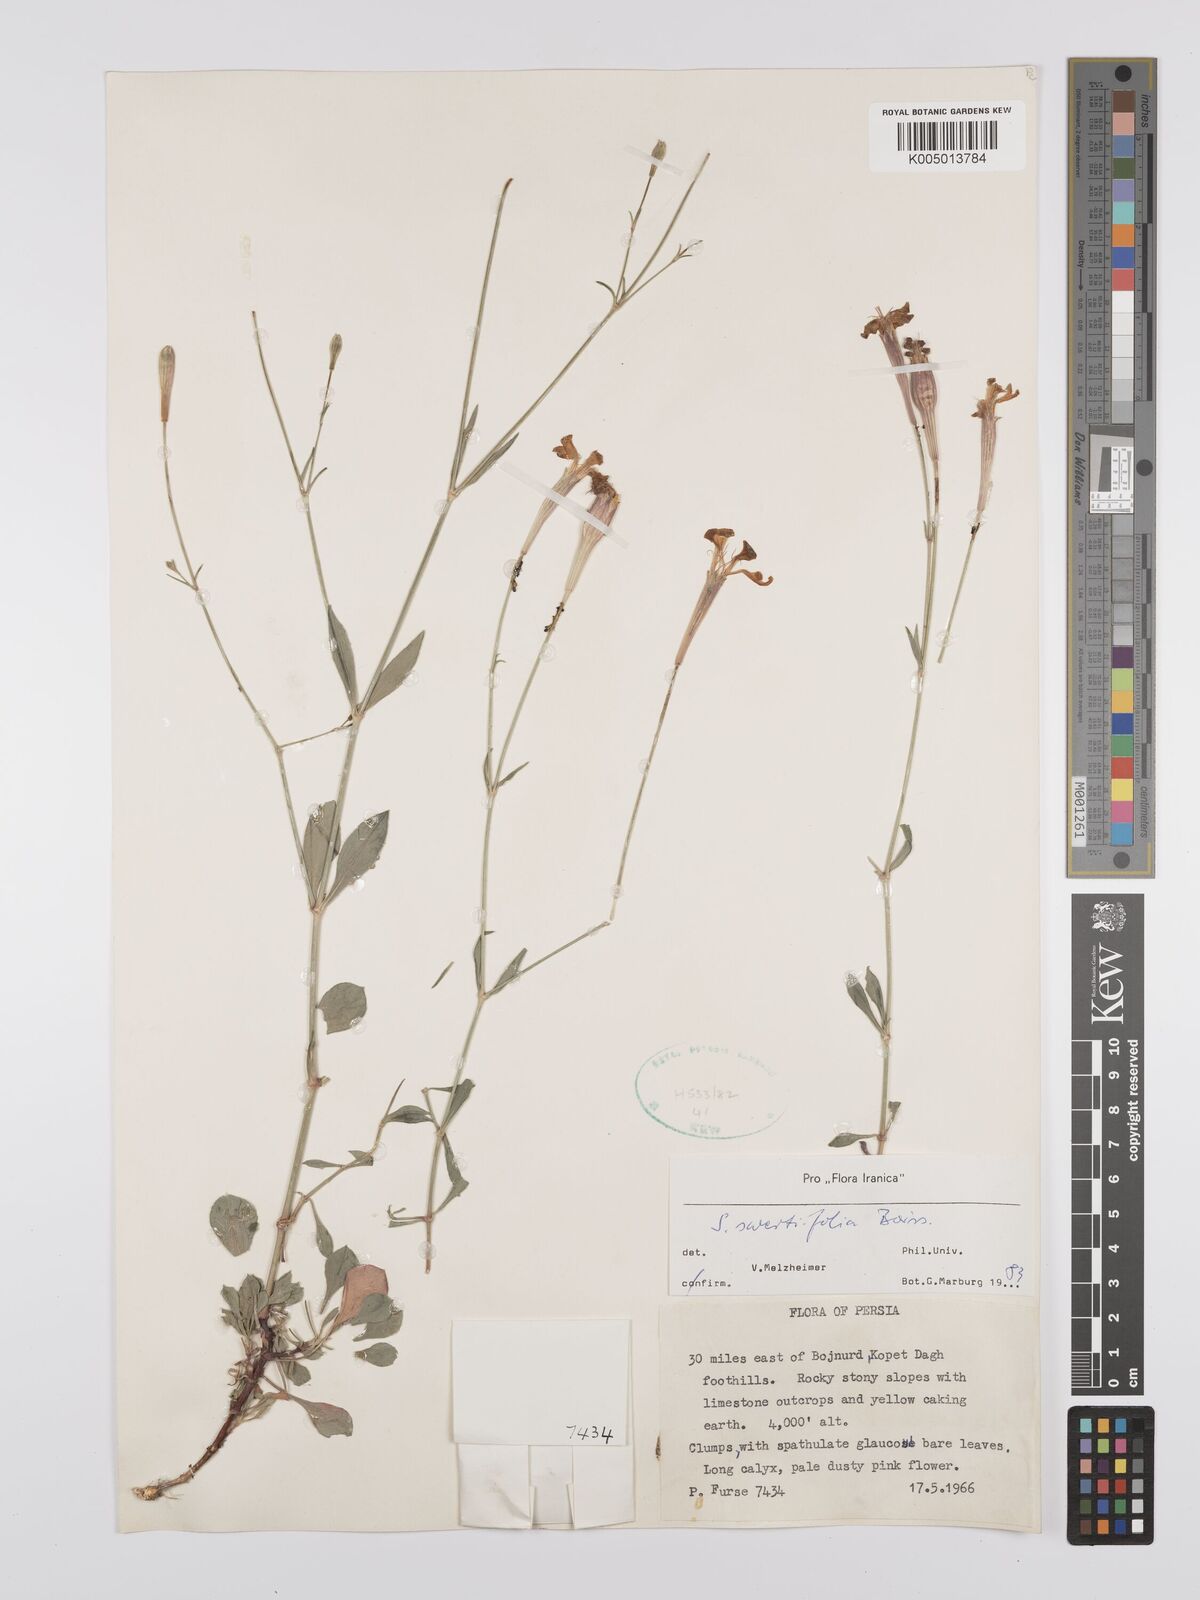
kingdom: Plantae
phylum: Tracheophyta
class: Magnoliopsida
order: Caryophyllales
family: Caryophyllaceae
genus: Silene
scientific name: Silene swertiifolia
